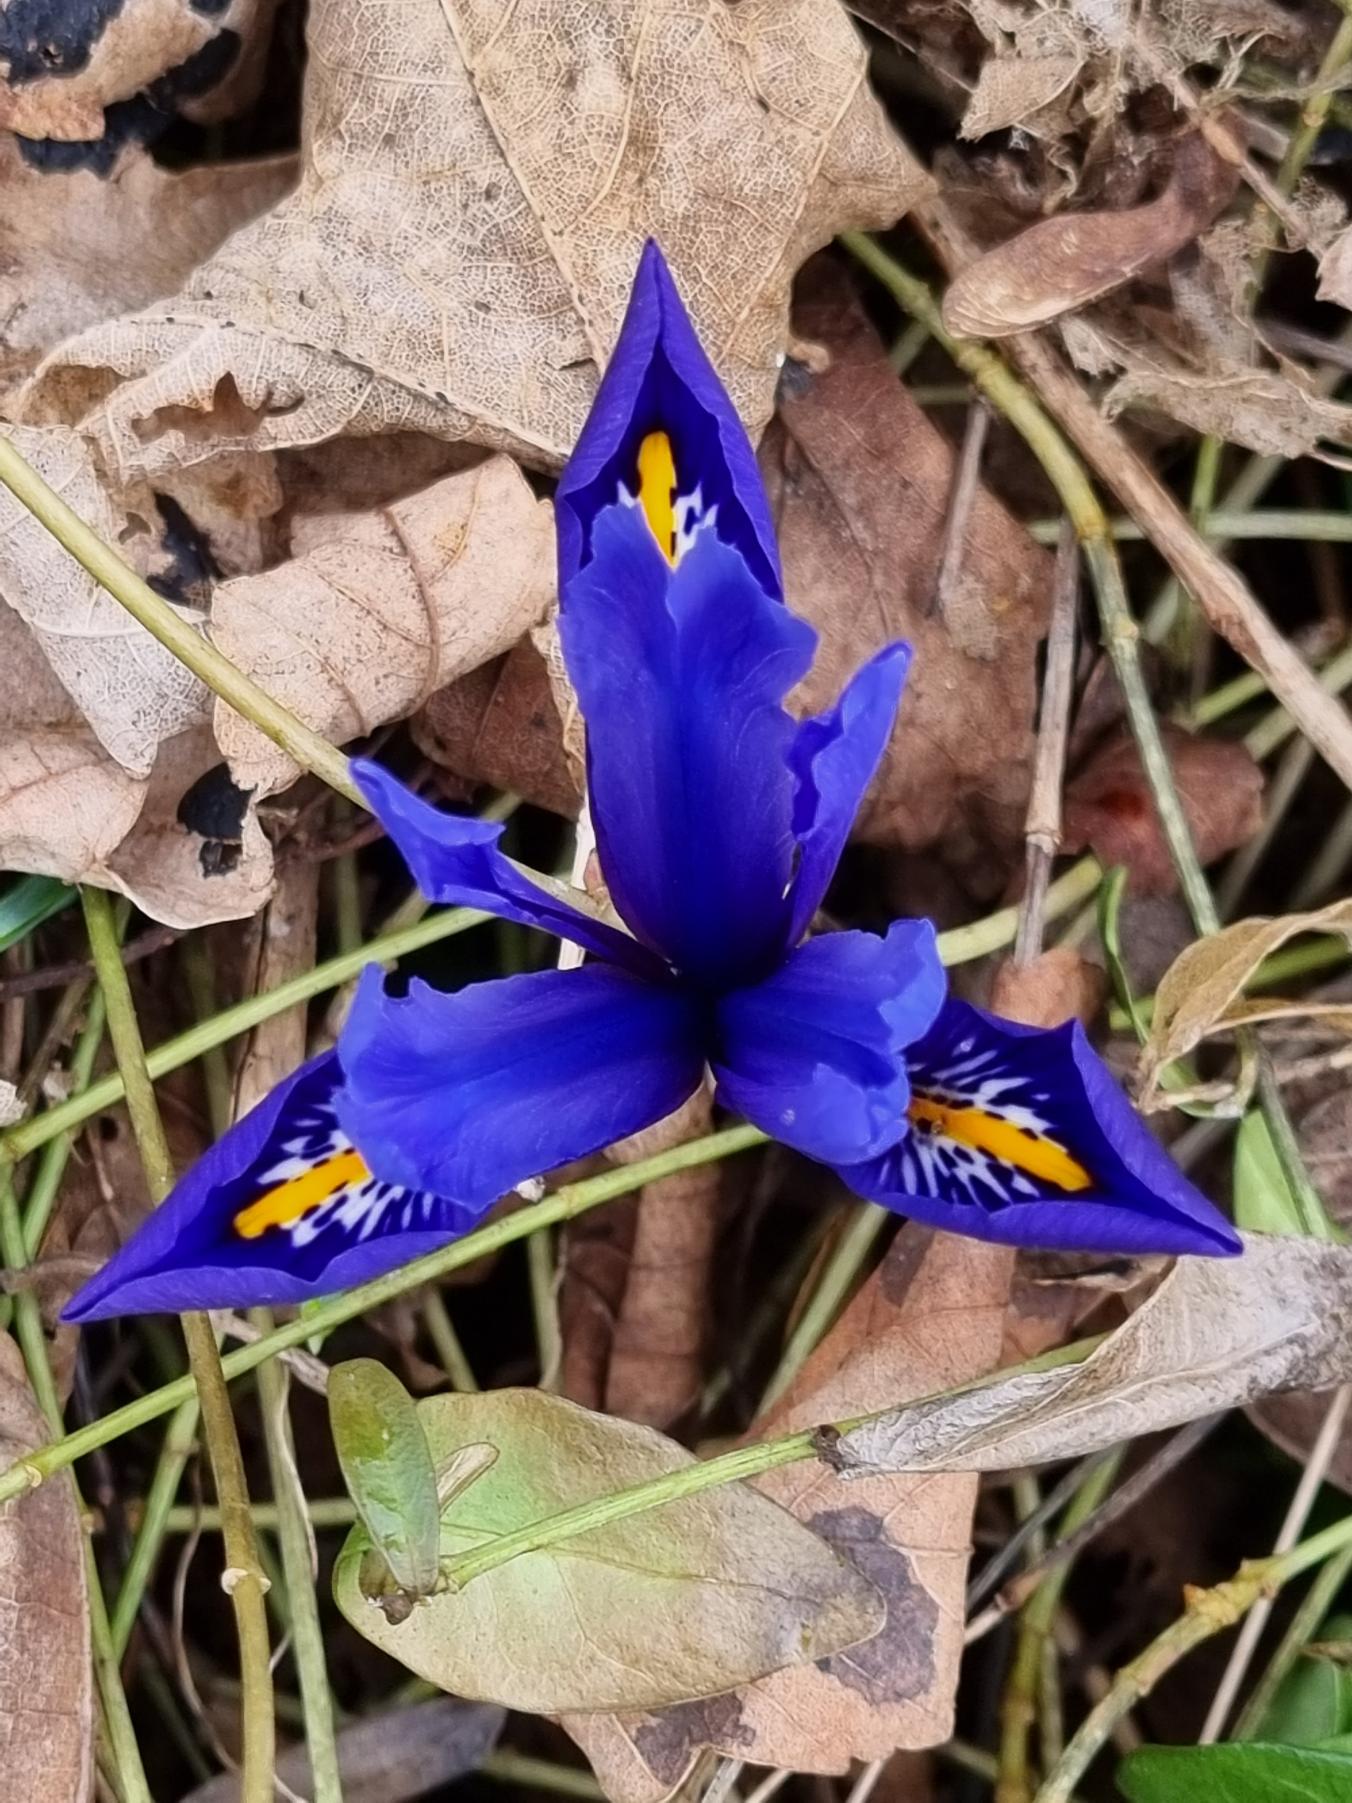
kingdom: Plantae
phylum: Tracheophyta
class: Liliopsida
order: Asparagales
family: Iridaceae
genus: Iris
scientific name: Iris reticulata
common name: Vår-iris
